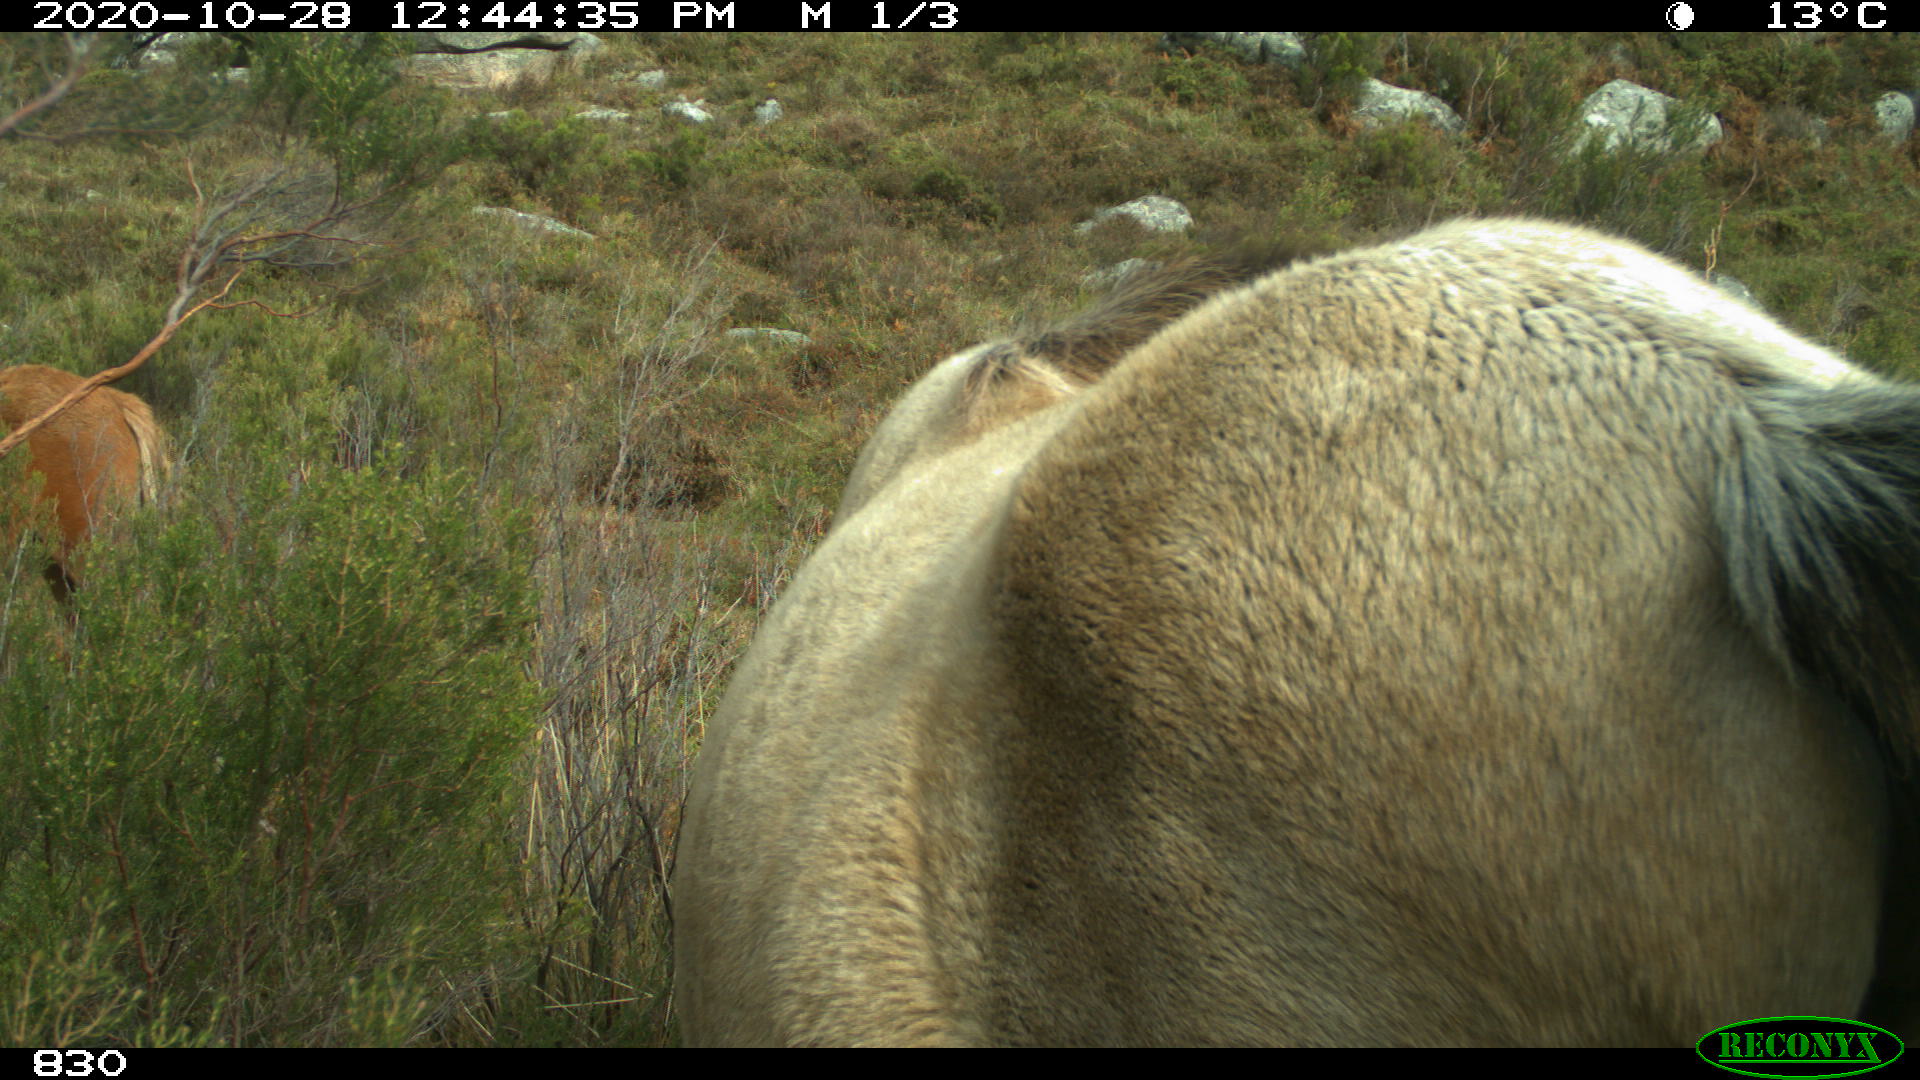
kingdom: Animalia
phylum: Chordata
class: Mammalia
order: Perissodactyla
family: Equidae
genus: Equus
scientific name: Equus caballus
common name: Horse
